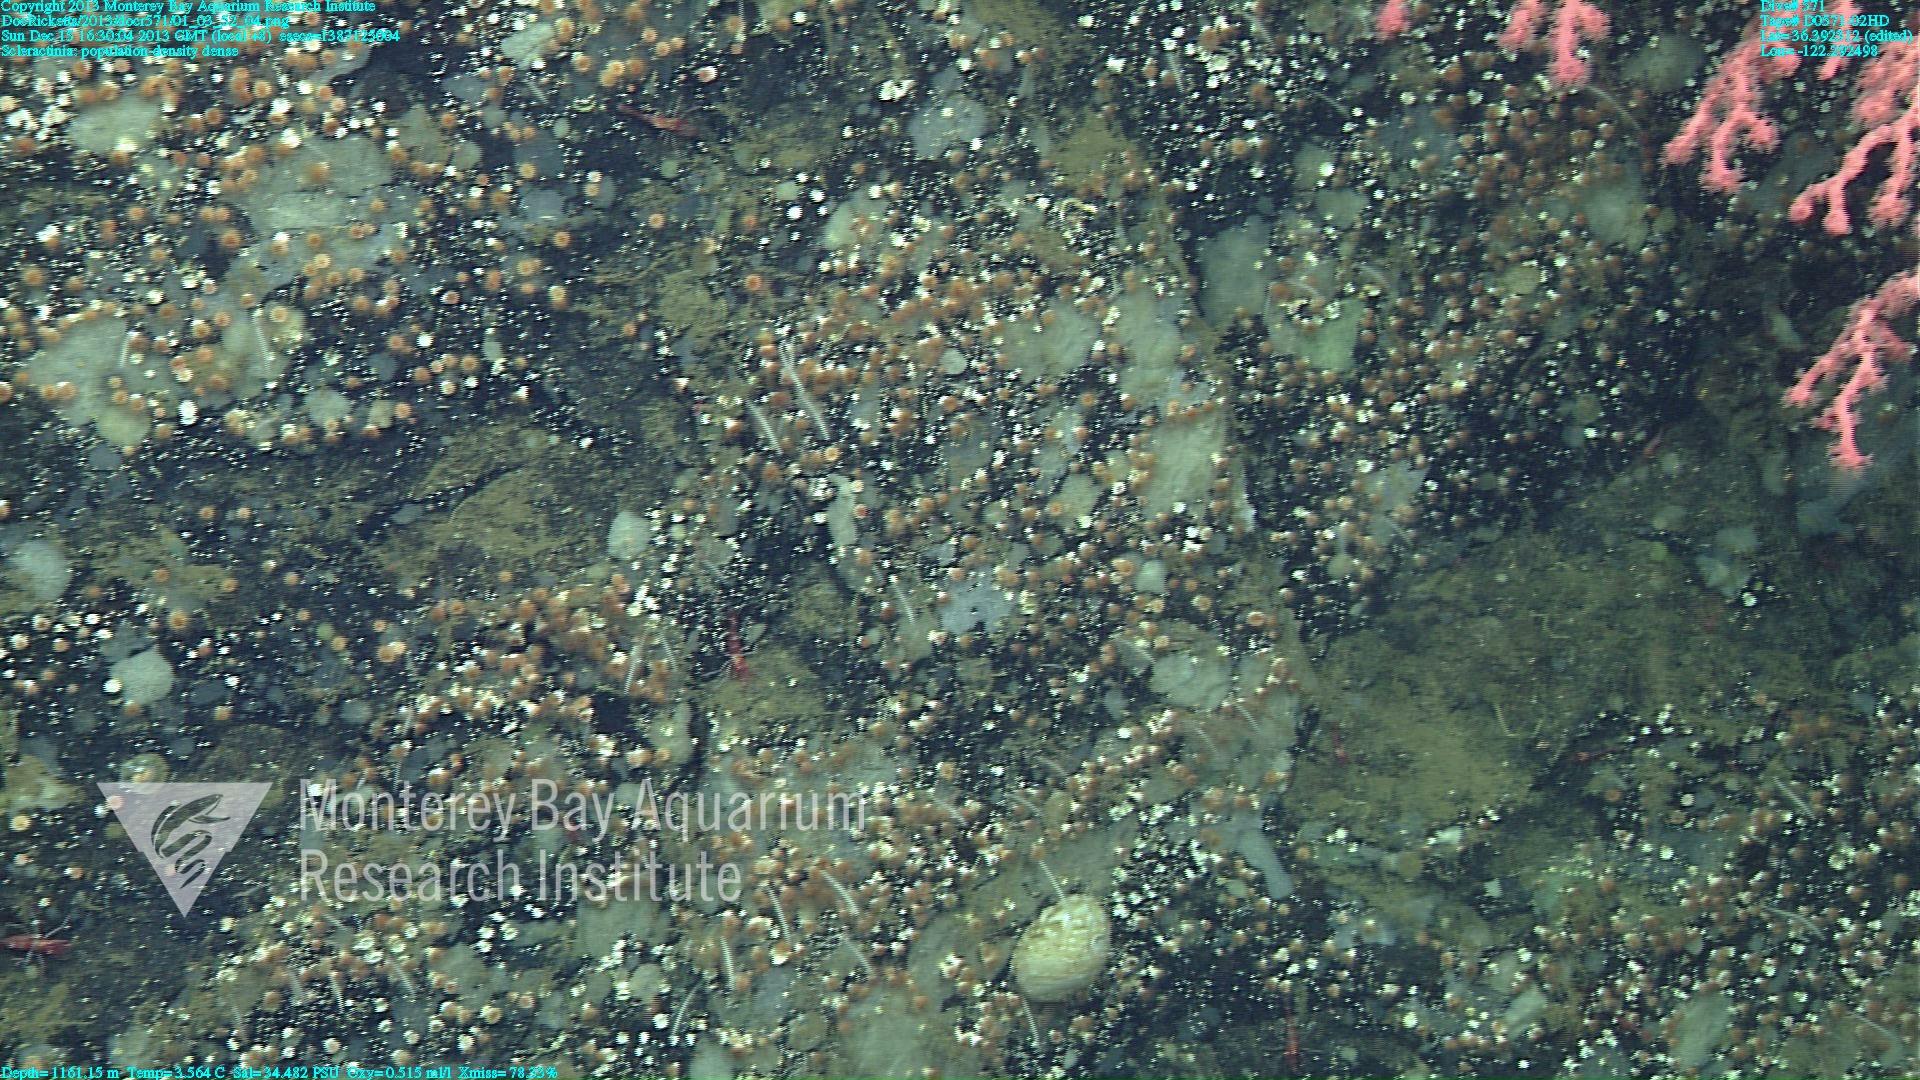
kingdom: Animalia
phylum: Cnidaria
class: Anthozoa
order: Scleractinia
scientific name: Scleractinia
